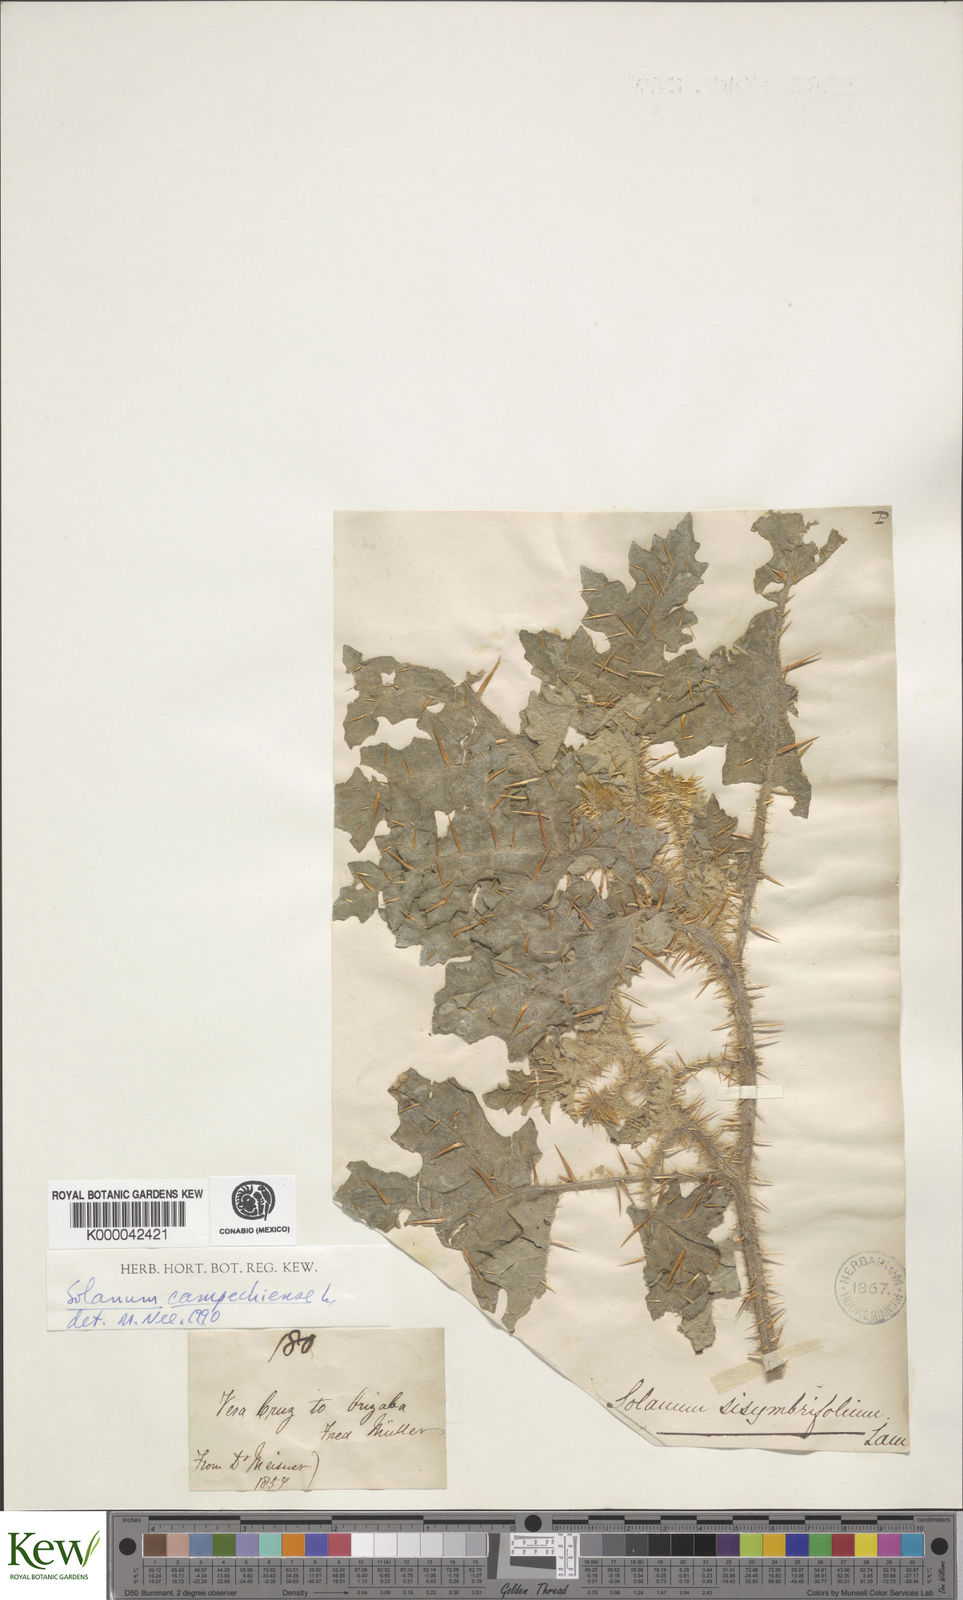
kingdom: Plantae
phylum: Tracheophyta
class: Magnoliopsida
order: Solanales
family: Solanaceae
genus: Solanum
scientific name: Solanum campechiense
